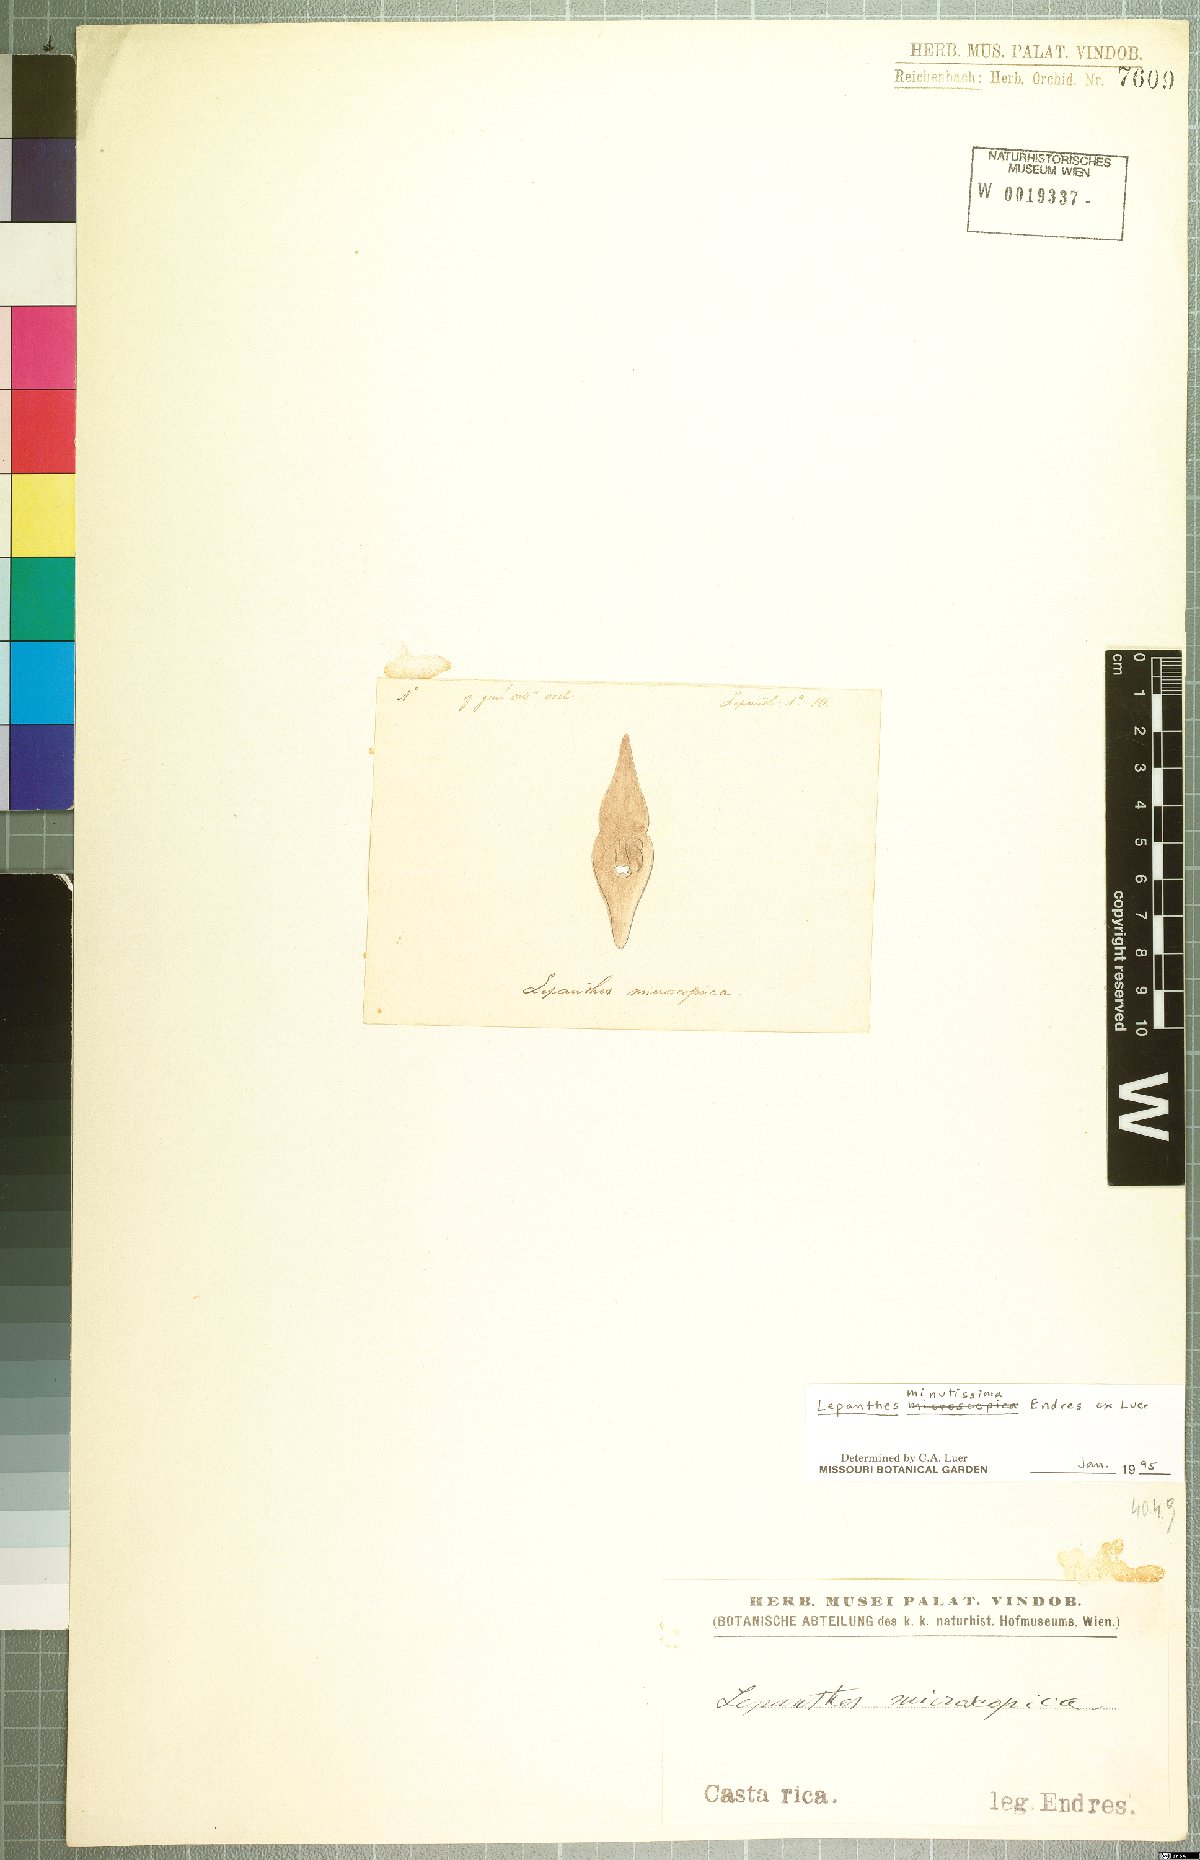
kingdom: Plantae
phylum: Tracheophyta
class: Liliopsida
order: Asparagales
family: Orchidaceae
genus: Lepanthes
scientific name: Lepanthes minutissima
